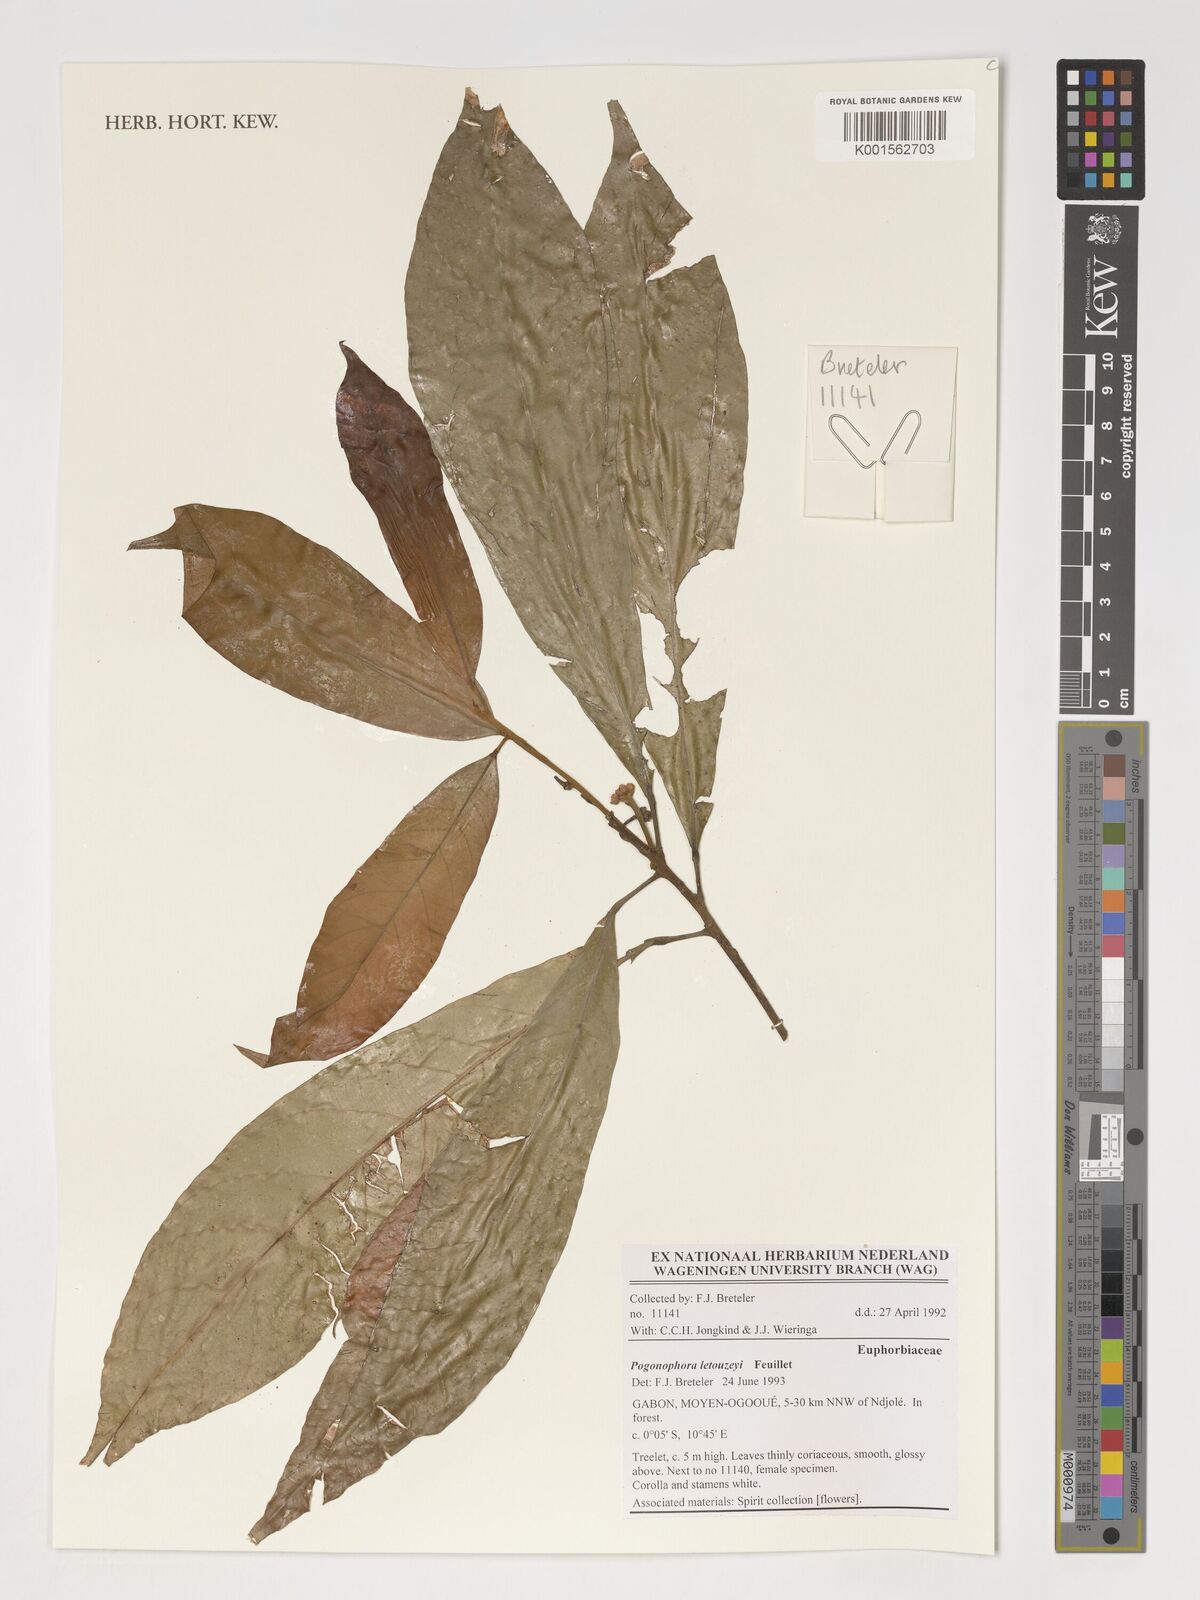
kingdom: Plantae
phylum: Tracheophyta
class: Magnoliopsida
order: Malpighiales
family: Peraceae
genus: Pogonophora
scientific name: Pogonophora letouzeyi
